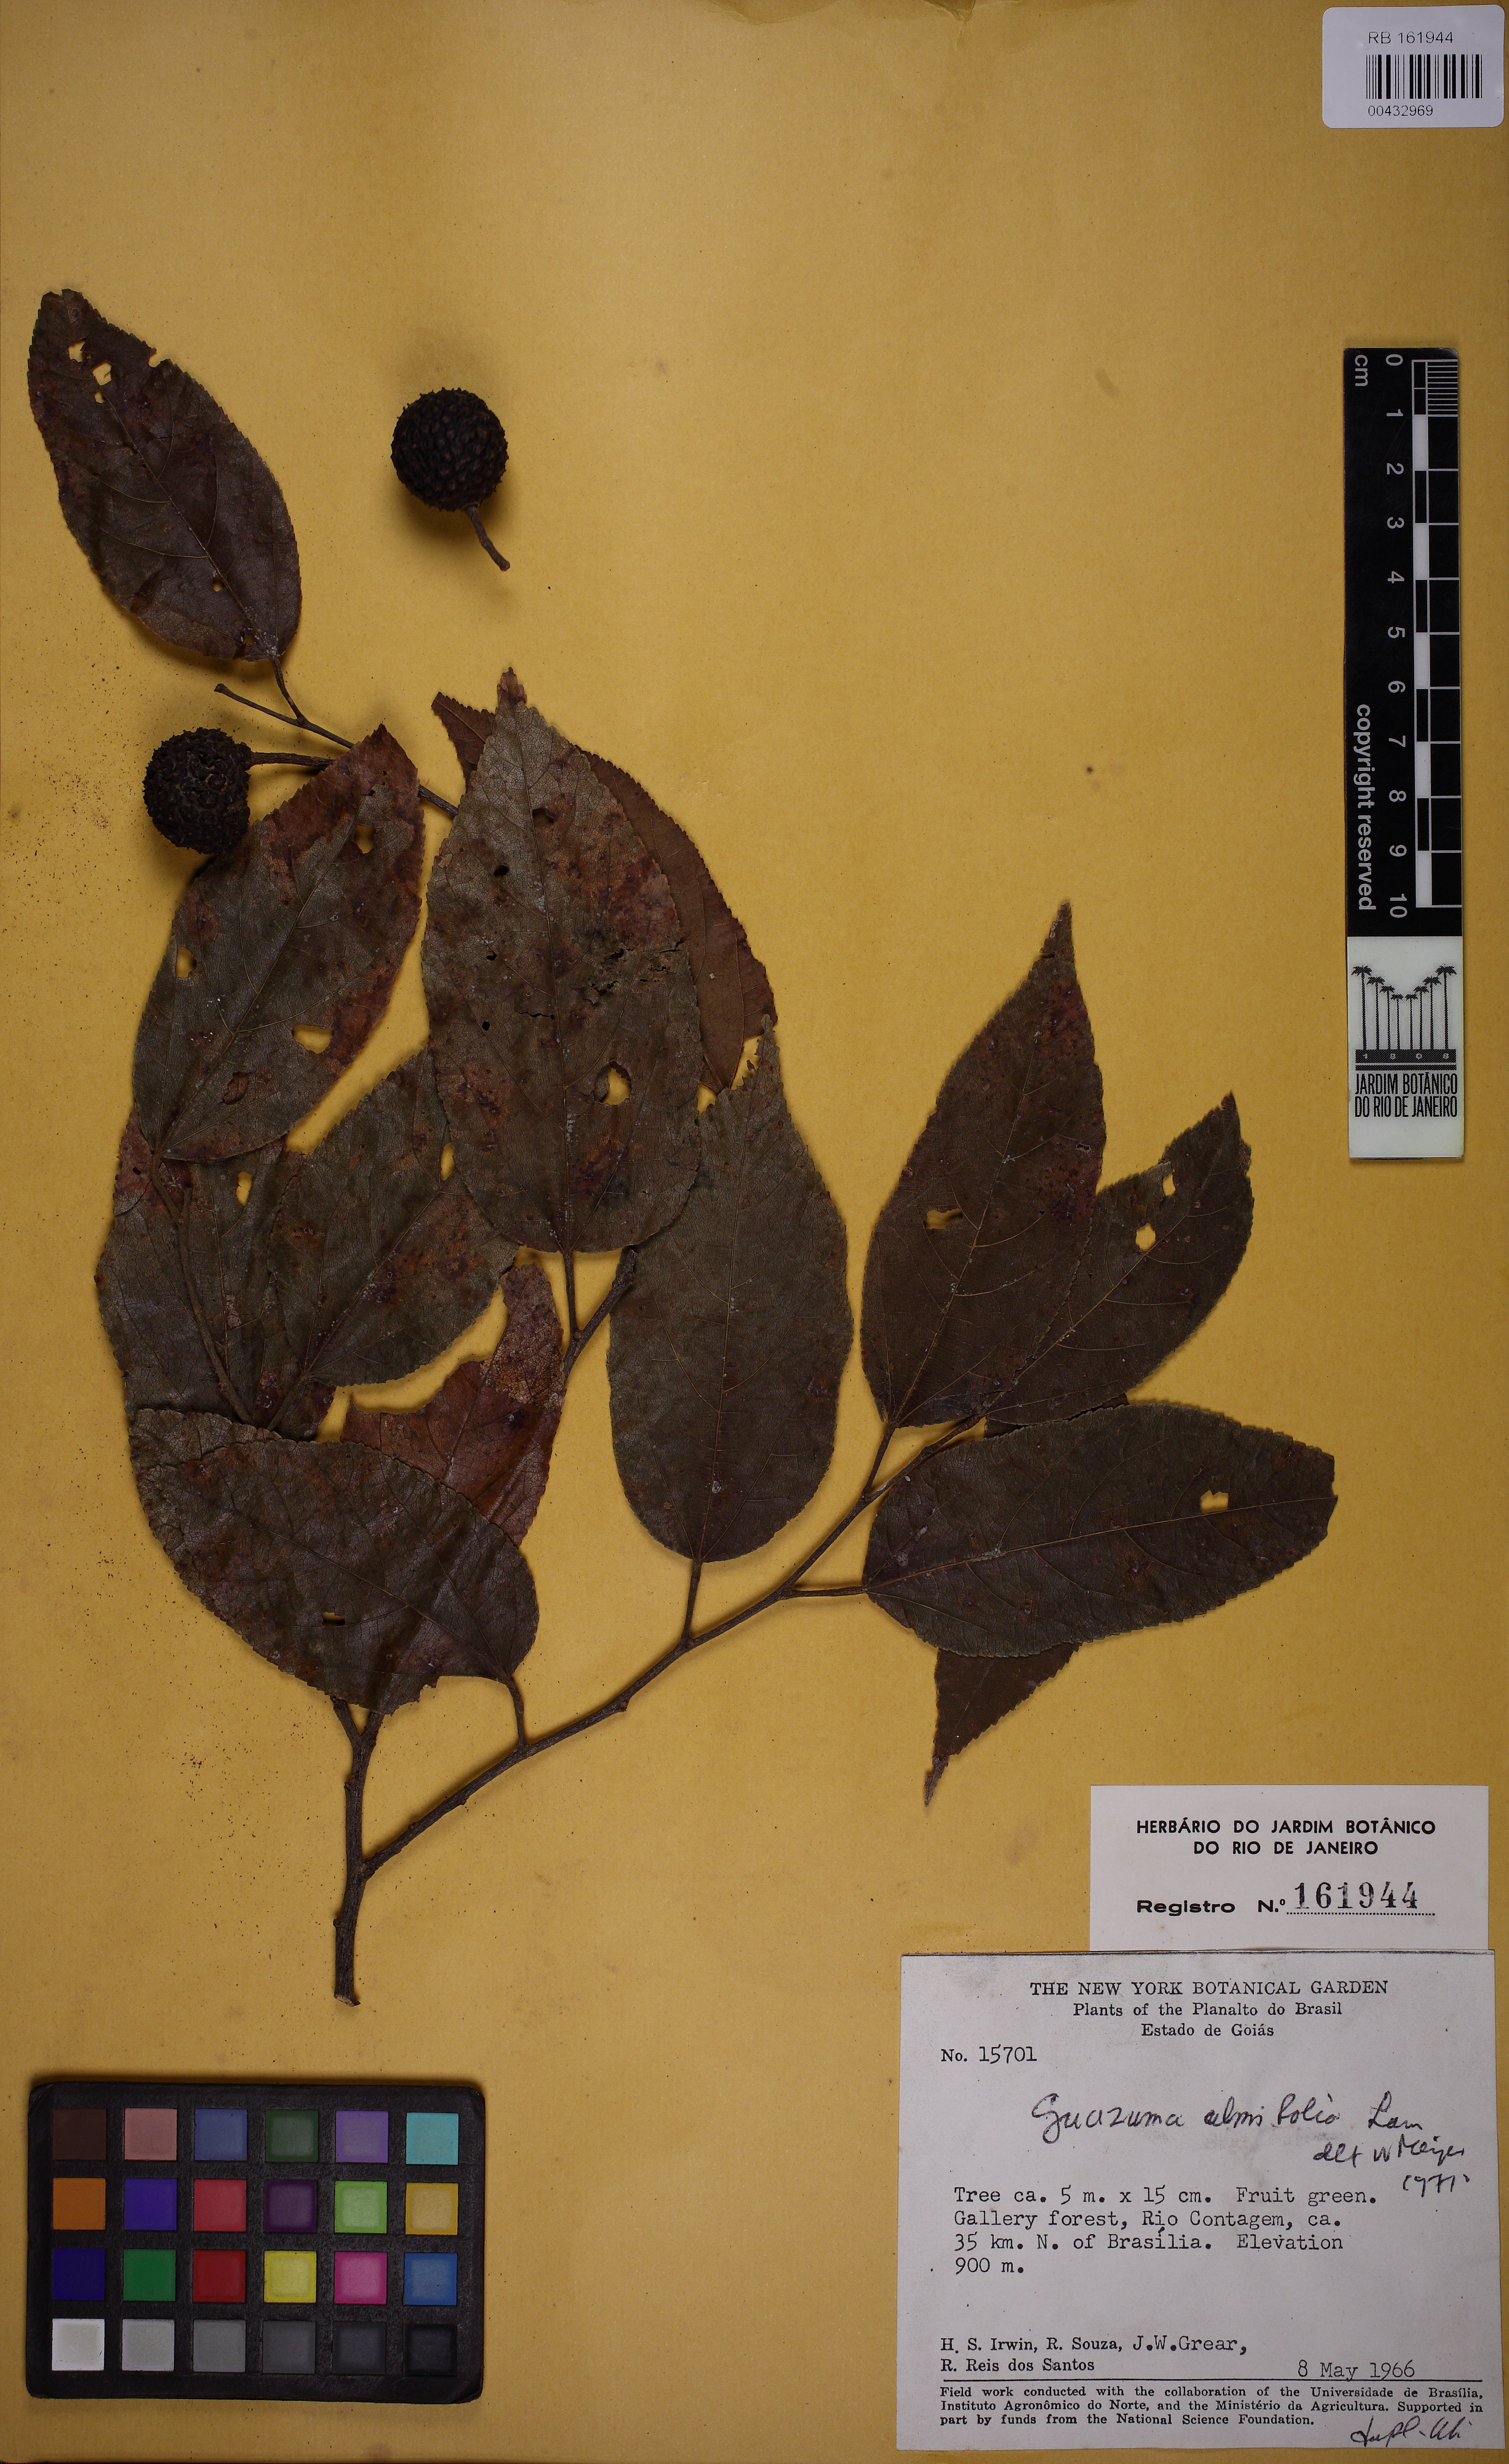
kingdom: Plantae
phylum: Tracheophyta
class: Magnoliopsida
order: Malvales
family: Malvaceae
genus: Guazuma
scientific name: Guazuma ulmifolia
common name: Bastard-cedar
